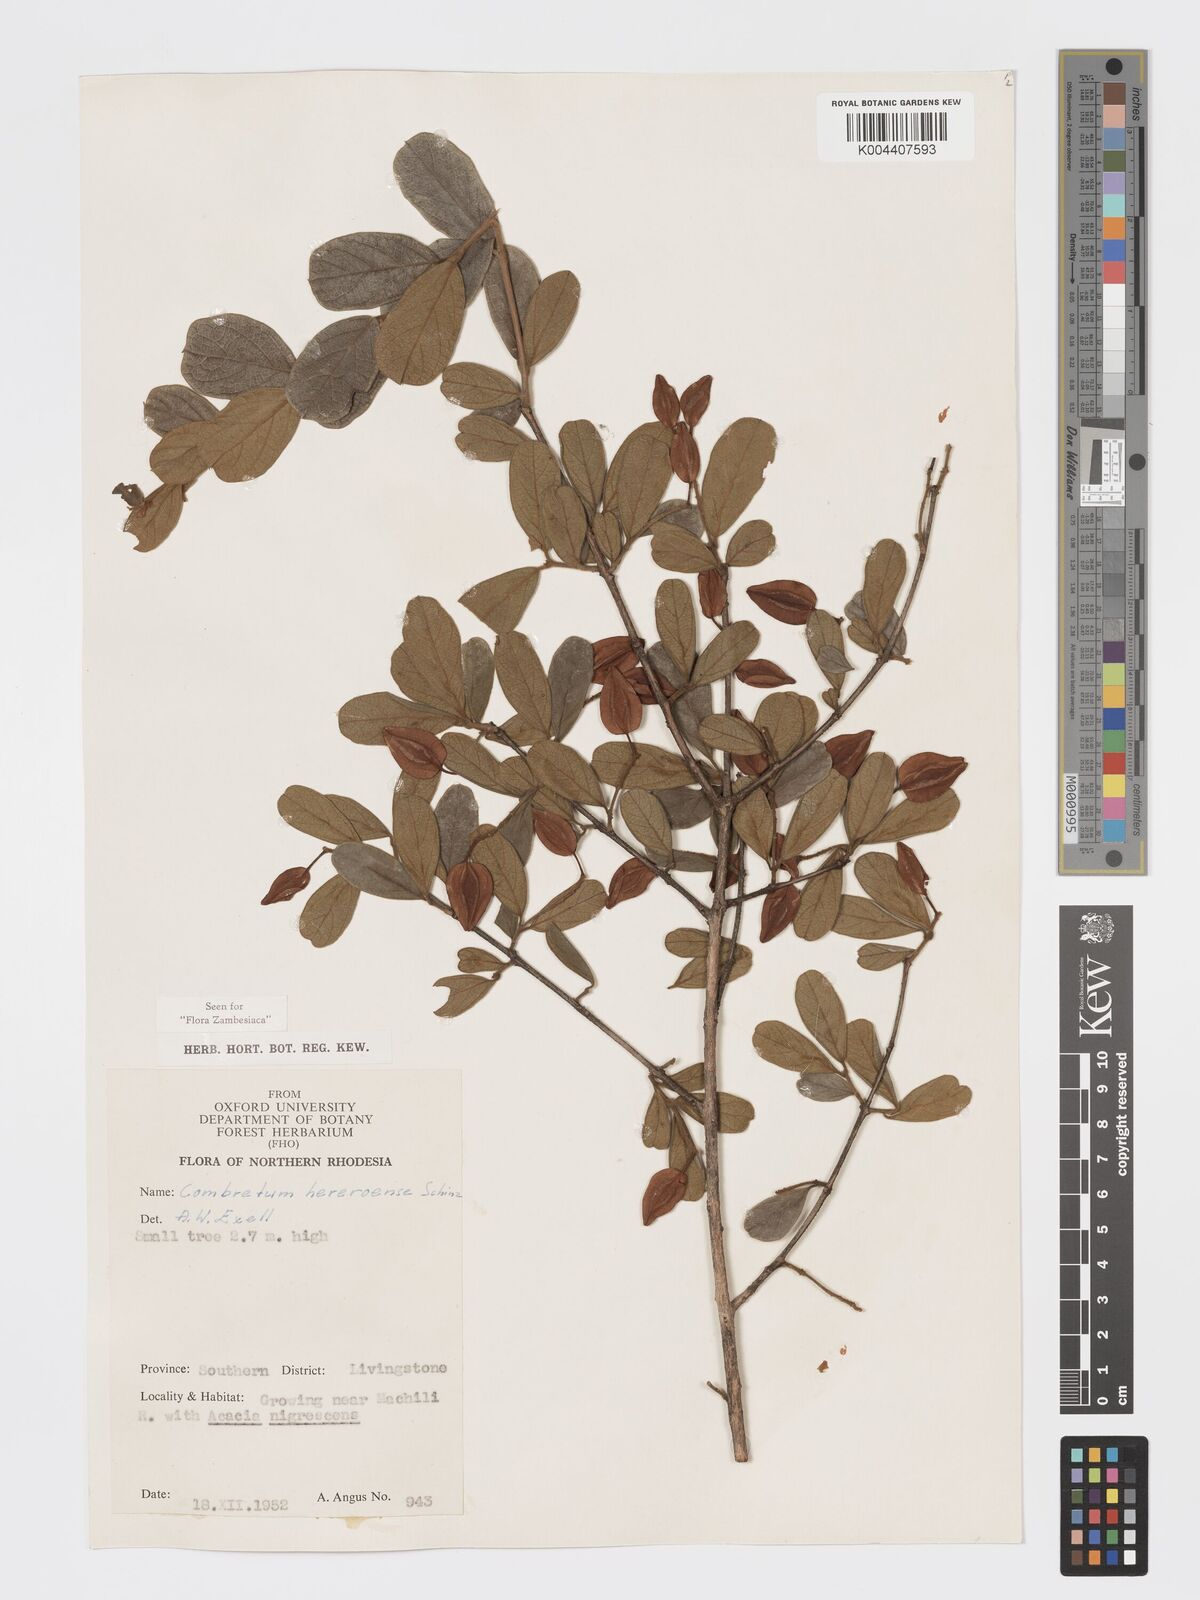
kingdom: Plantae
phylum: Tracheophyta
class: Magnoliopsida
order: Myrtales
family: Combretaceae
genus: Combretum
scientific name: Combretum hereroense
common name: Russet bushwillow
